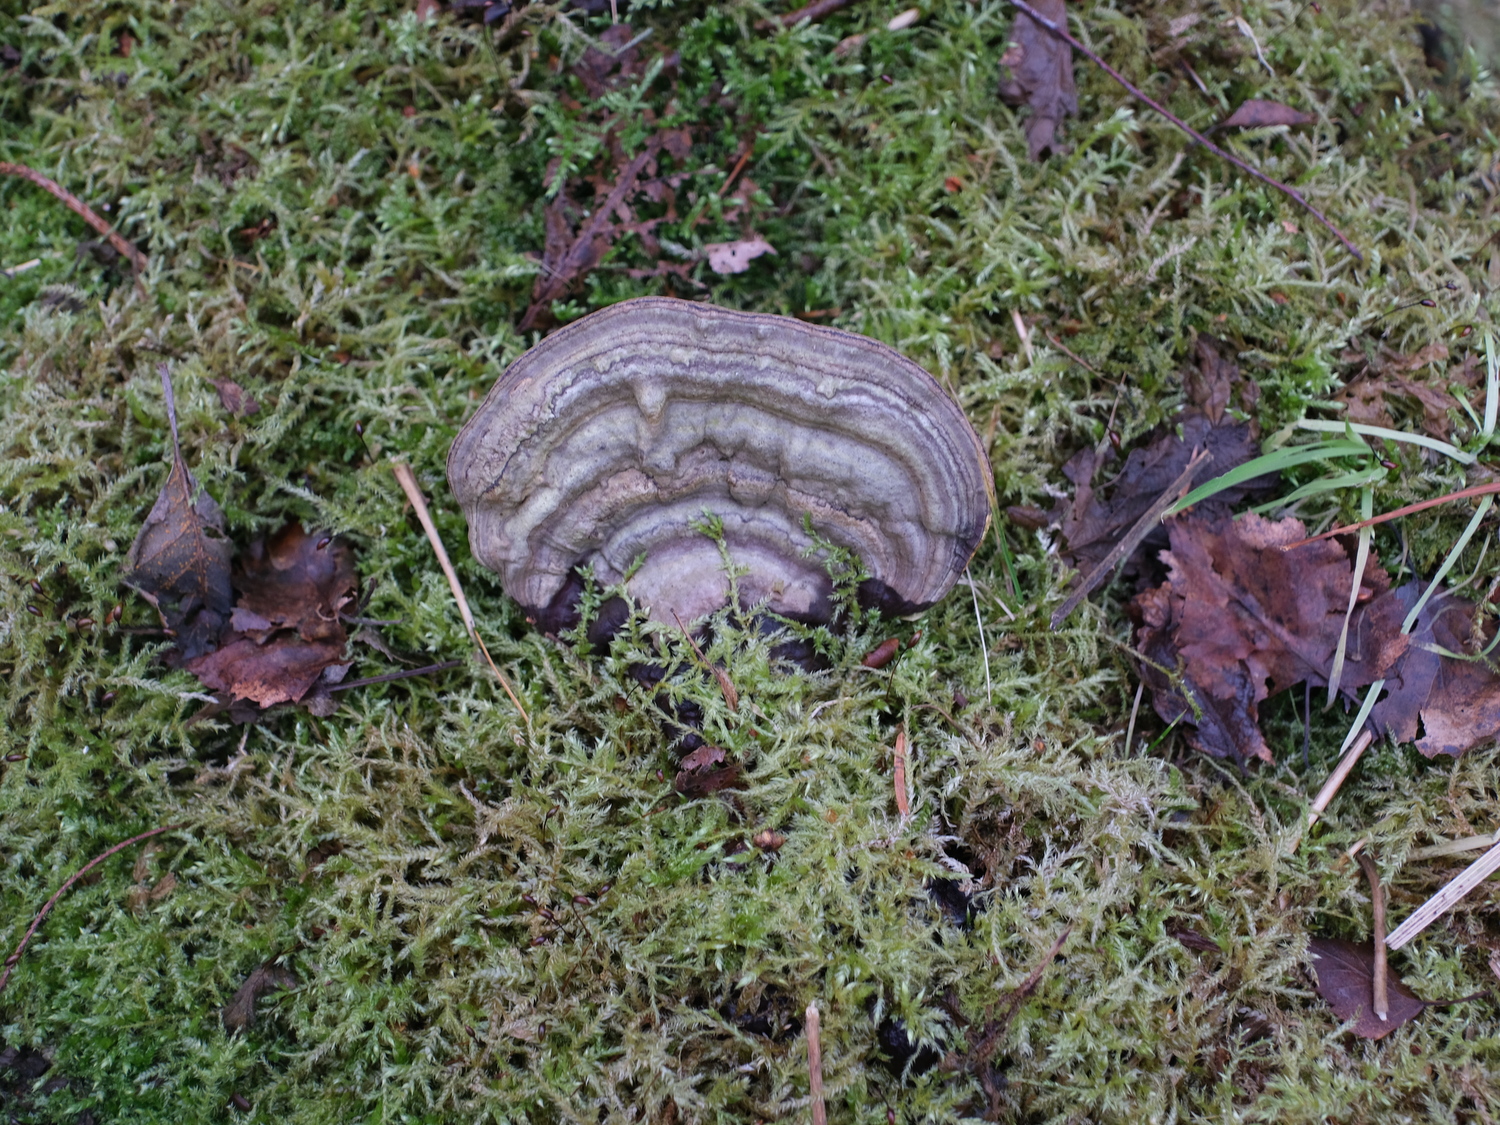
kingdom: Fungi
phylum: Basidiomycota
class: Agaricomycetes
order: Polyporales
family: Polyporaceae
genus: Ganoderma
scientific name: Ganoderma applanatum
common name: flad lakporesvamp
